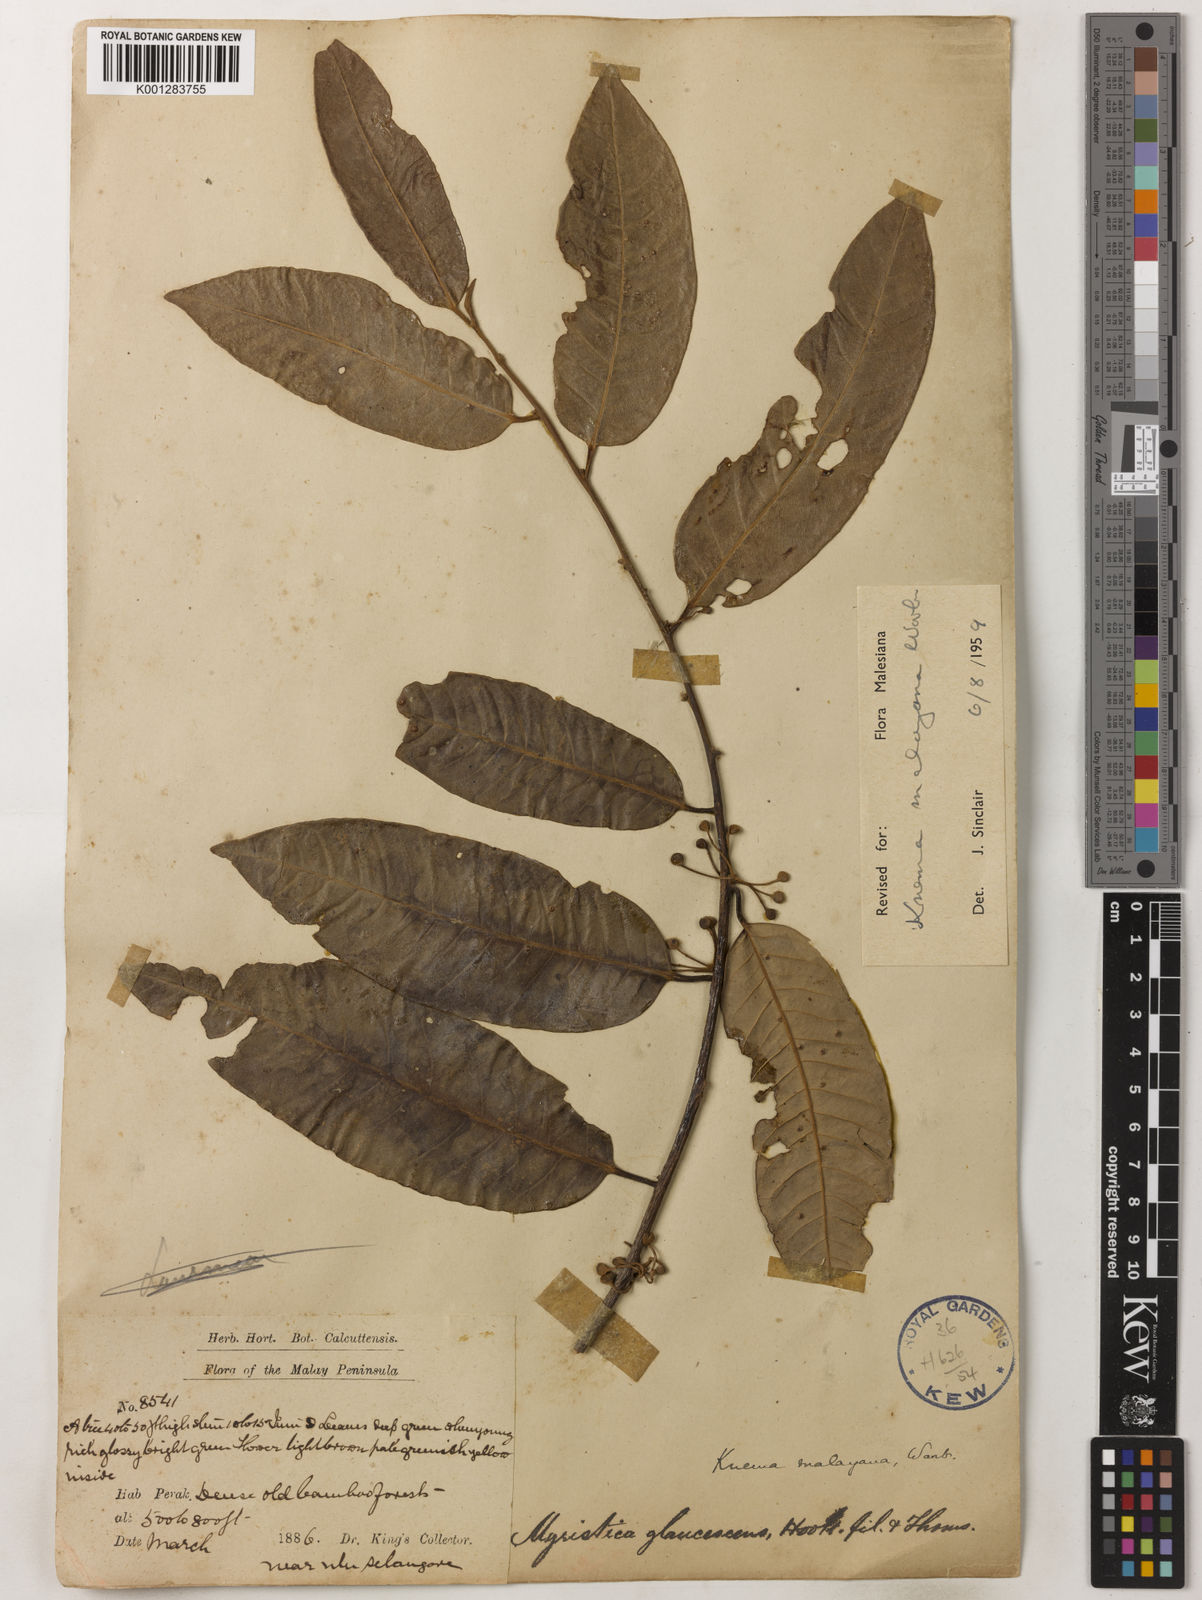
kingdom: Plantae
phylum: Tracheophyta
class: Magnoliopsida
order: Magnoliales
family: Myristicaceae
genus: Knema
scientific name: Knema malayana
